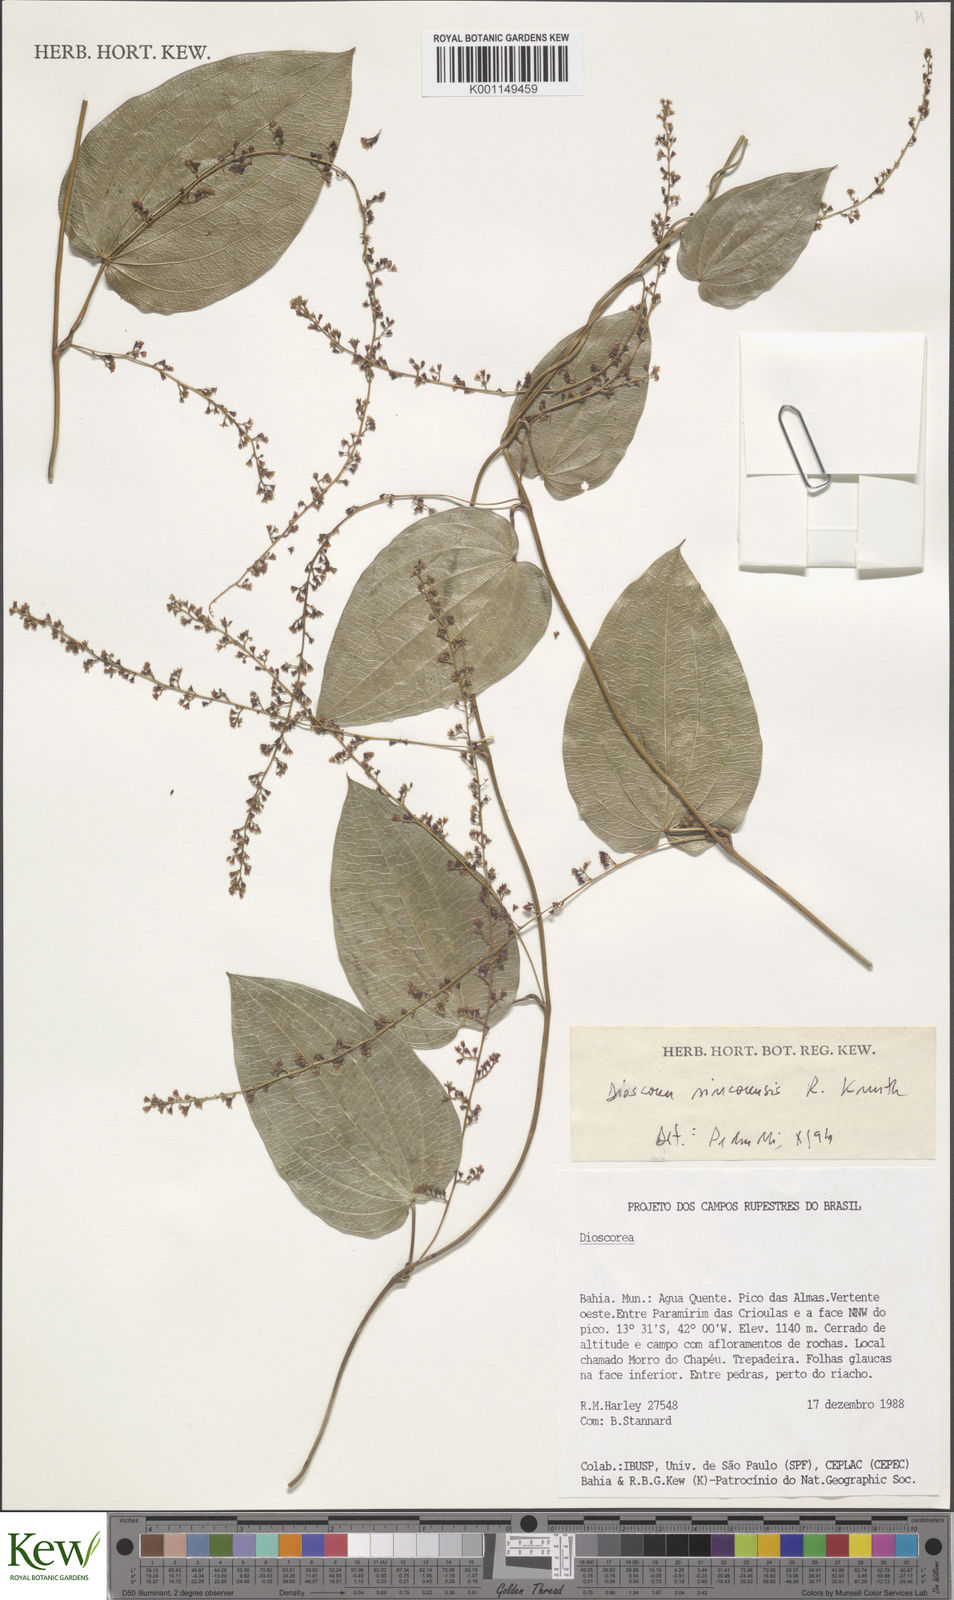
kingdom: Plantae
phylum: Tracheophyta
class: Liliopsida
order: Dioscoreales
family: Dioscoreaceae
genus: Dioscorea
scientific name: Dioscorea sincorensis
